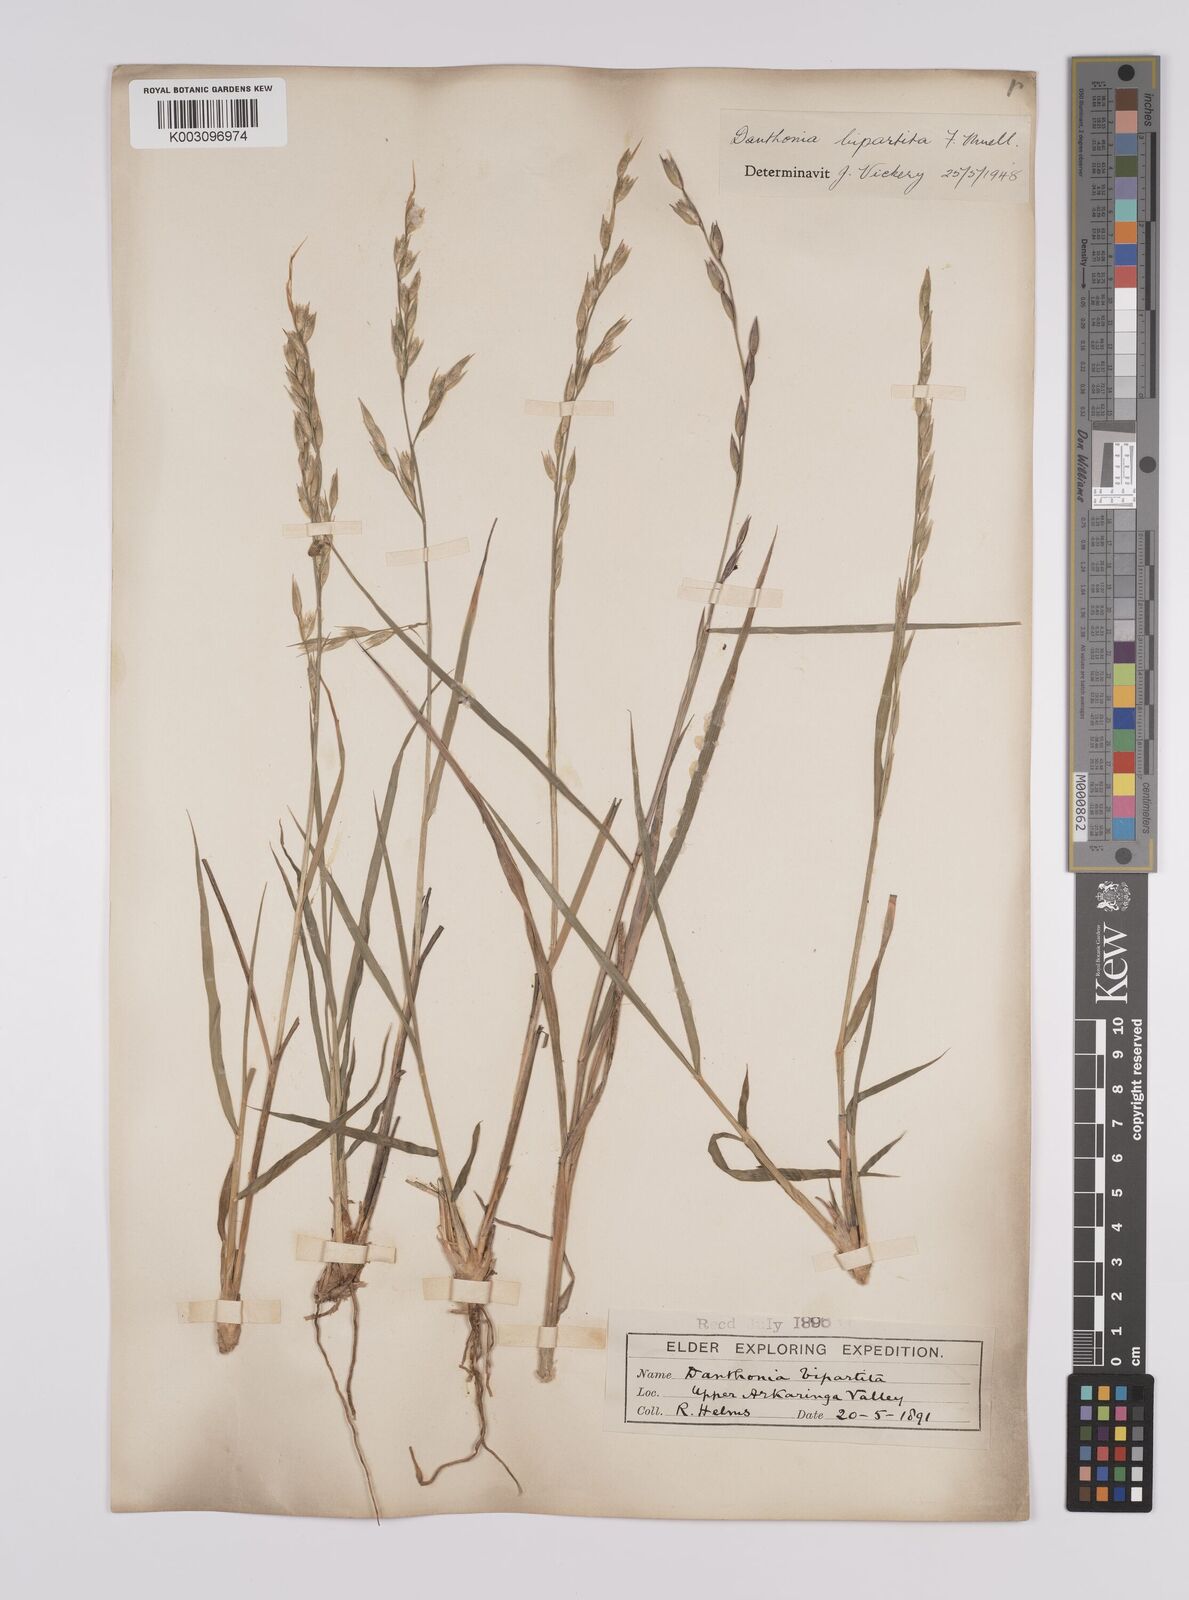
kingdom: Plantae
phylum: Tracheophyta
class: Liliopsida
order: Poales
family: Poaceae
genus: Monachather
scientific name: Monachather paradoxus
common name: Bandicoot grass
